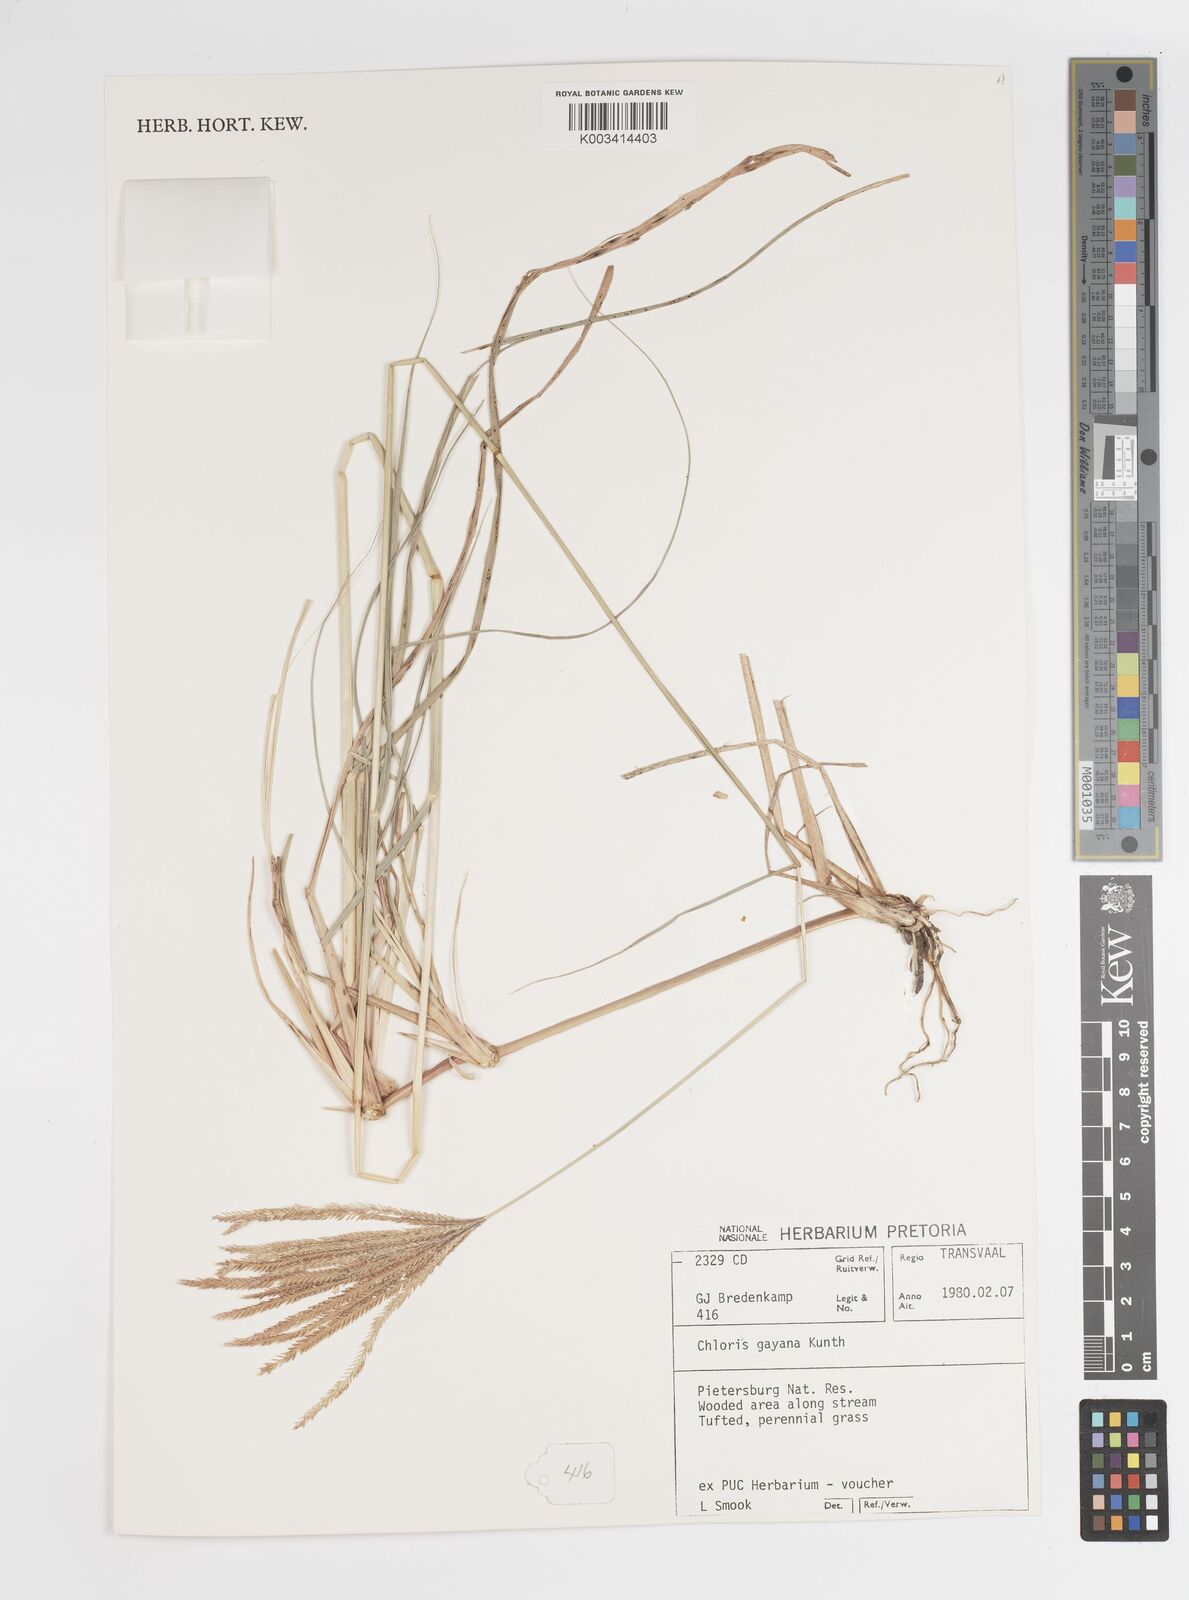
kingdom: Plantae
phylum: Tracheophyta
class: Liliopsida
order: Poales
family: Poaceae
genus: Chloris
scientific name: Chloris gayana
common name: Rhodes grass
